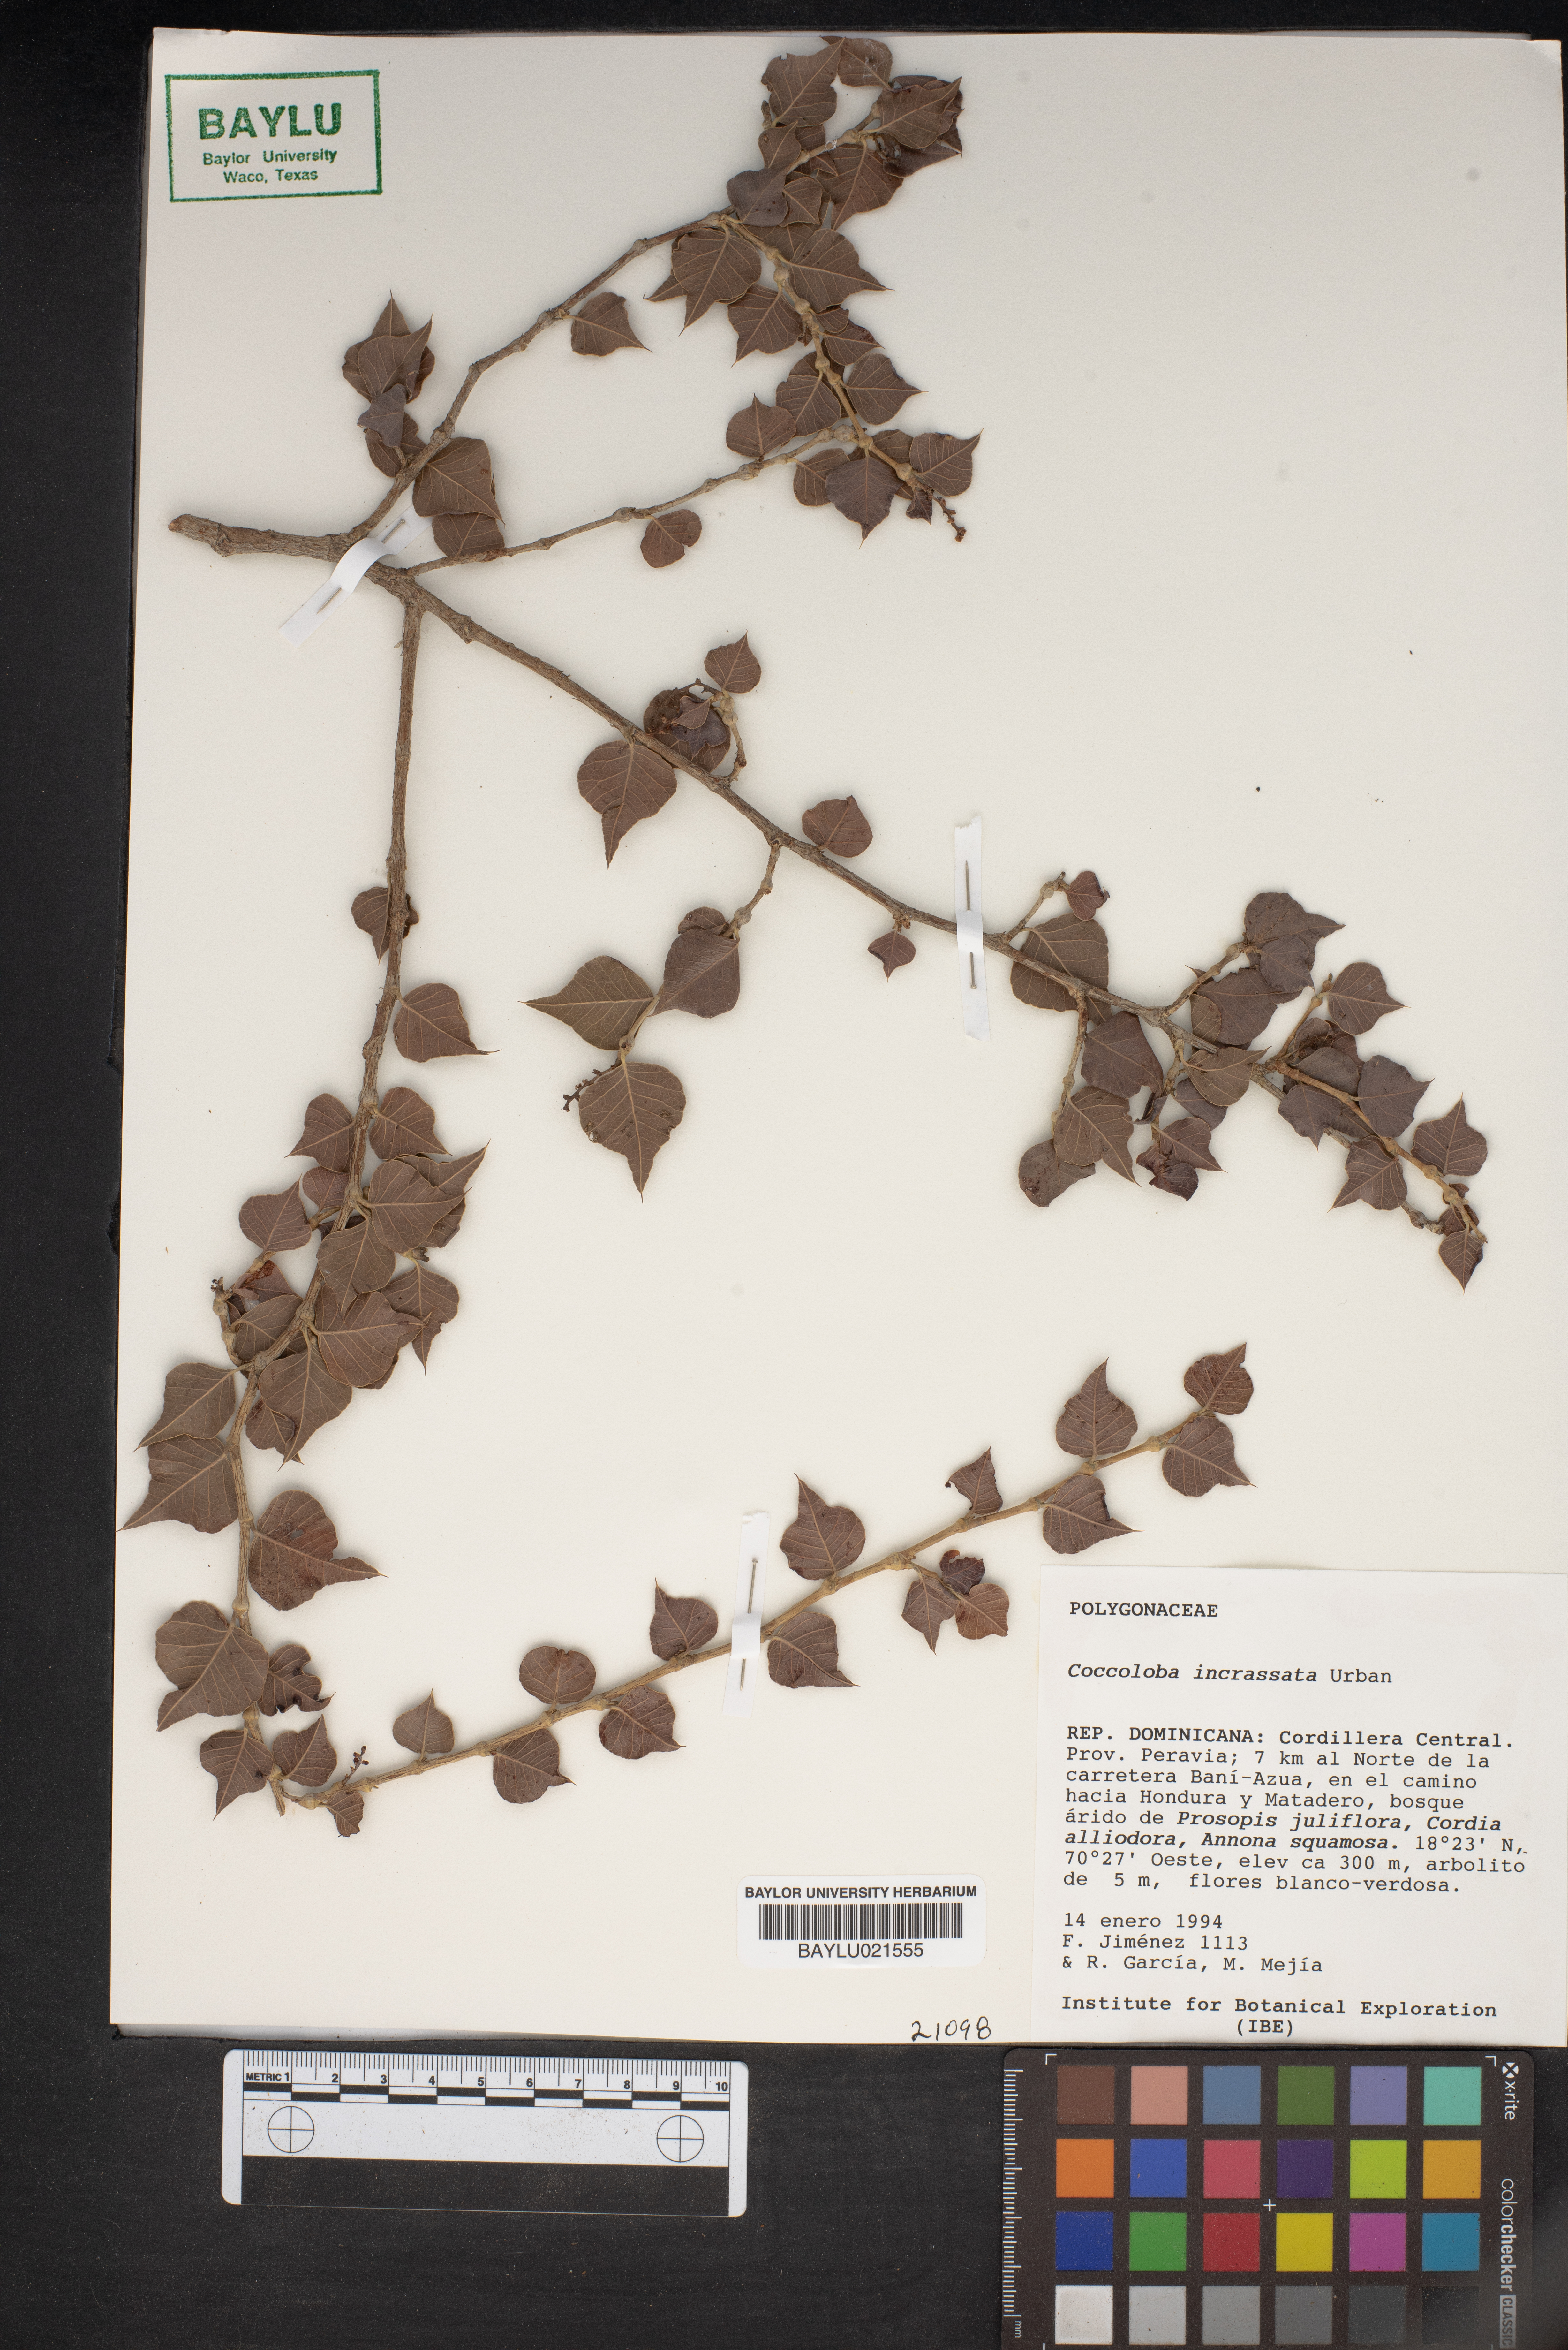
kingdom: Plantae
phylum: Tracheophyta
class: Magnoliopsida
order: Caryophyllales
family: Polygonaceae
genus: Coccoloba
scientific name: Coccoloba incrassata
